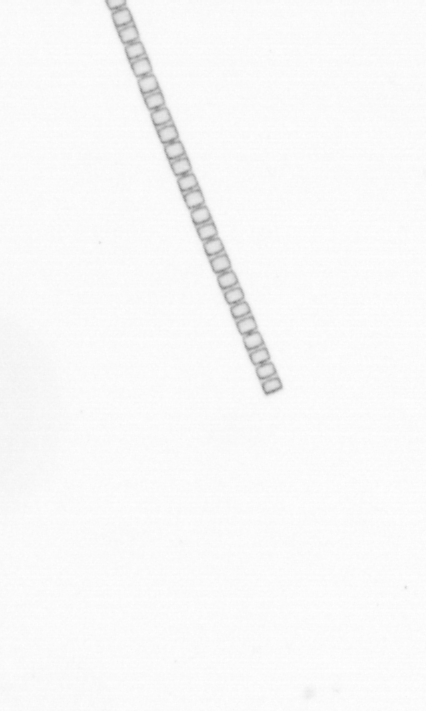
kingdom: Chromista
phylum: Ochrophyta
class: Bacillariophyceae
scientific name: Bacillariophyceae
